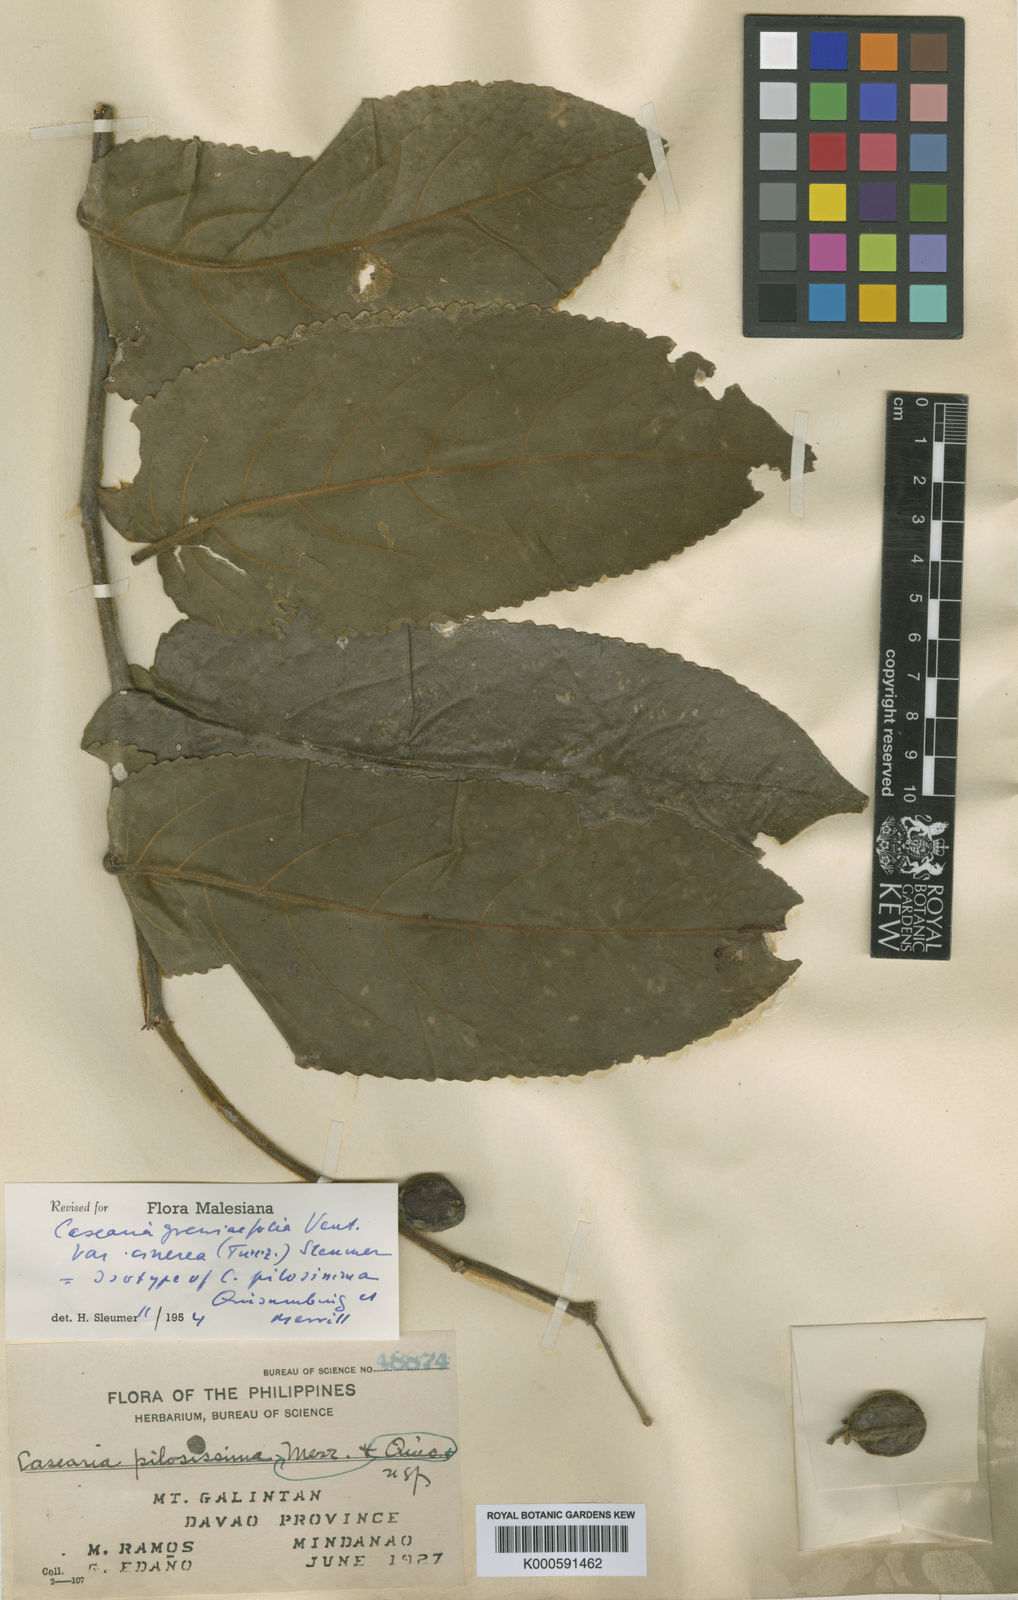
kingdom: Plantae
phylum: Tracheophyta
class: Magnoliopsida
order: Malpighiales
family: Salicaceae
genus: Casearia
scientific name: Casearia grewiifolia
